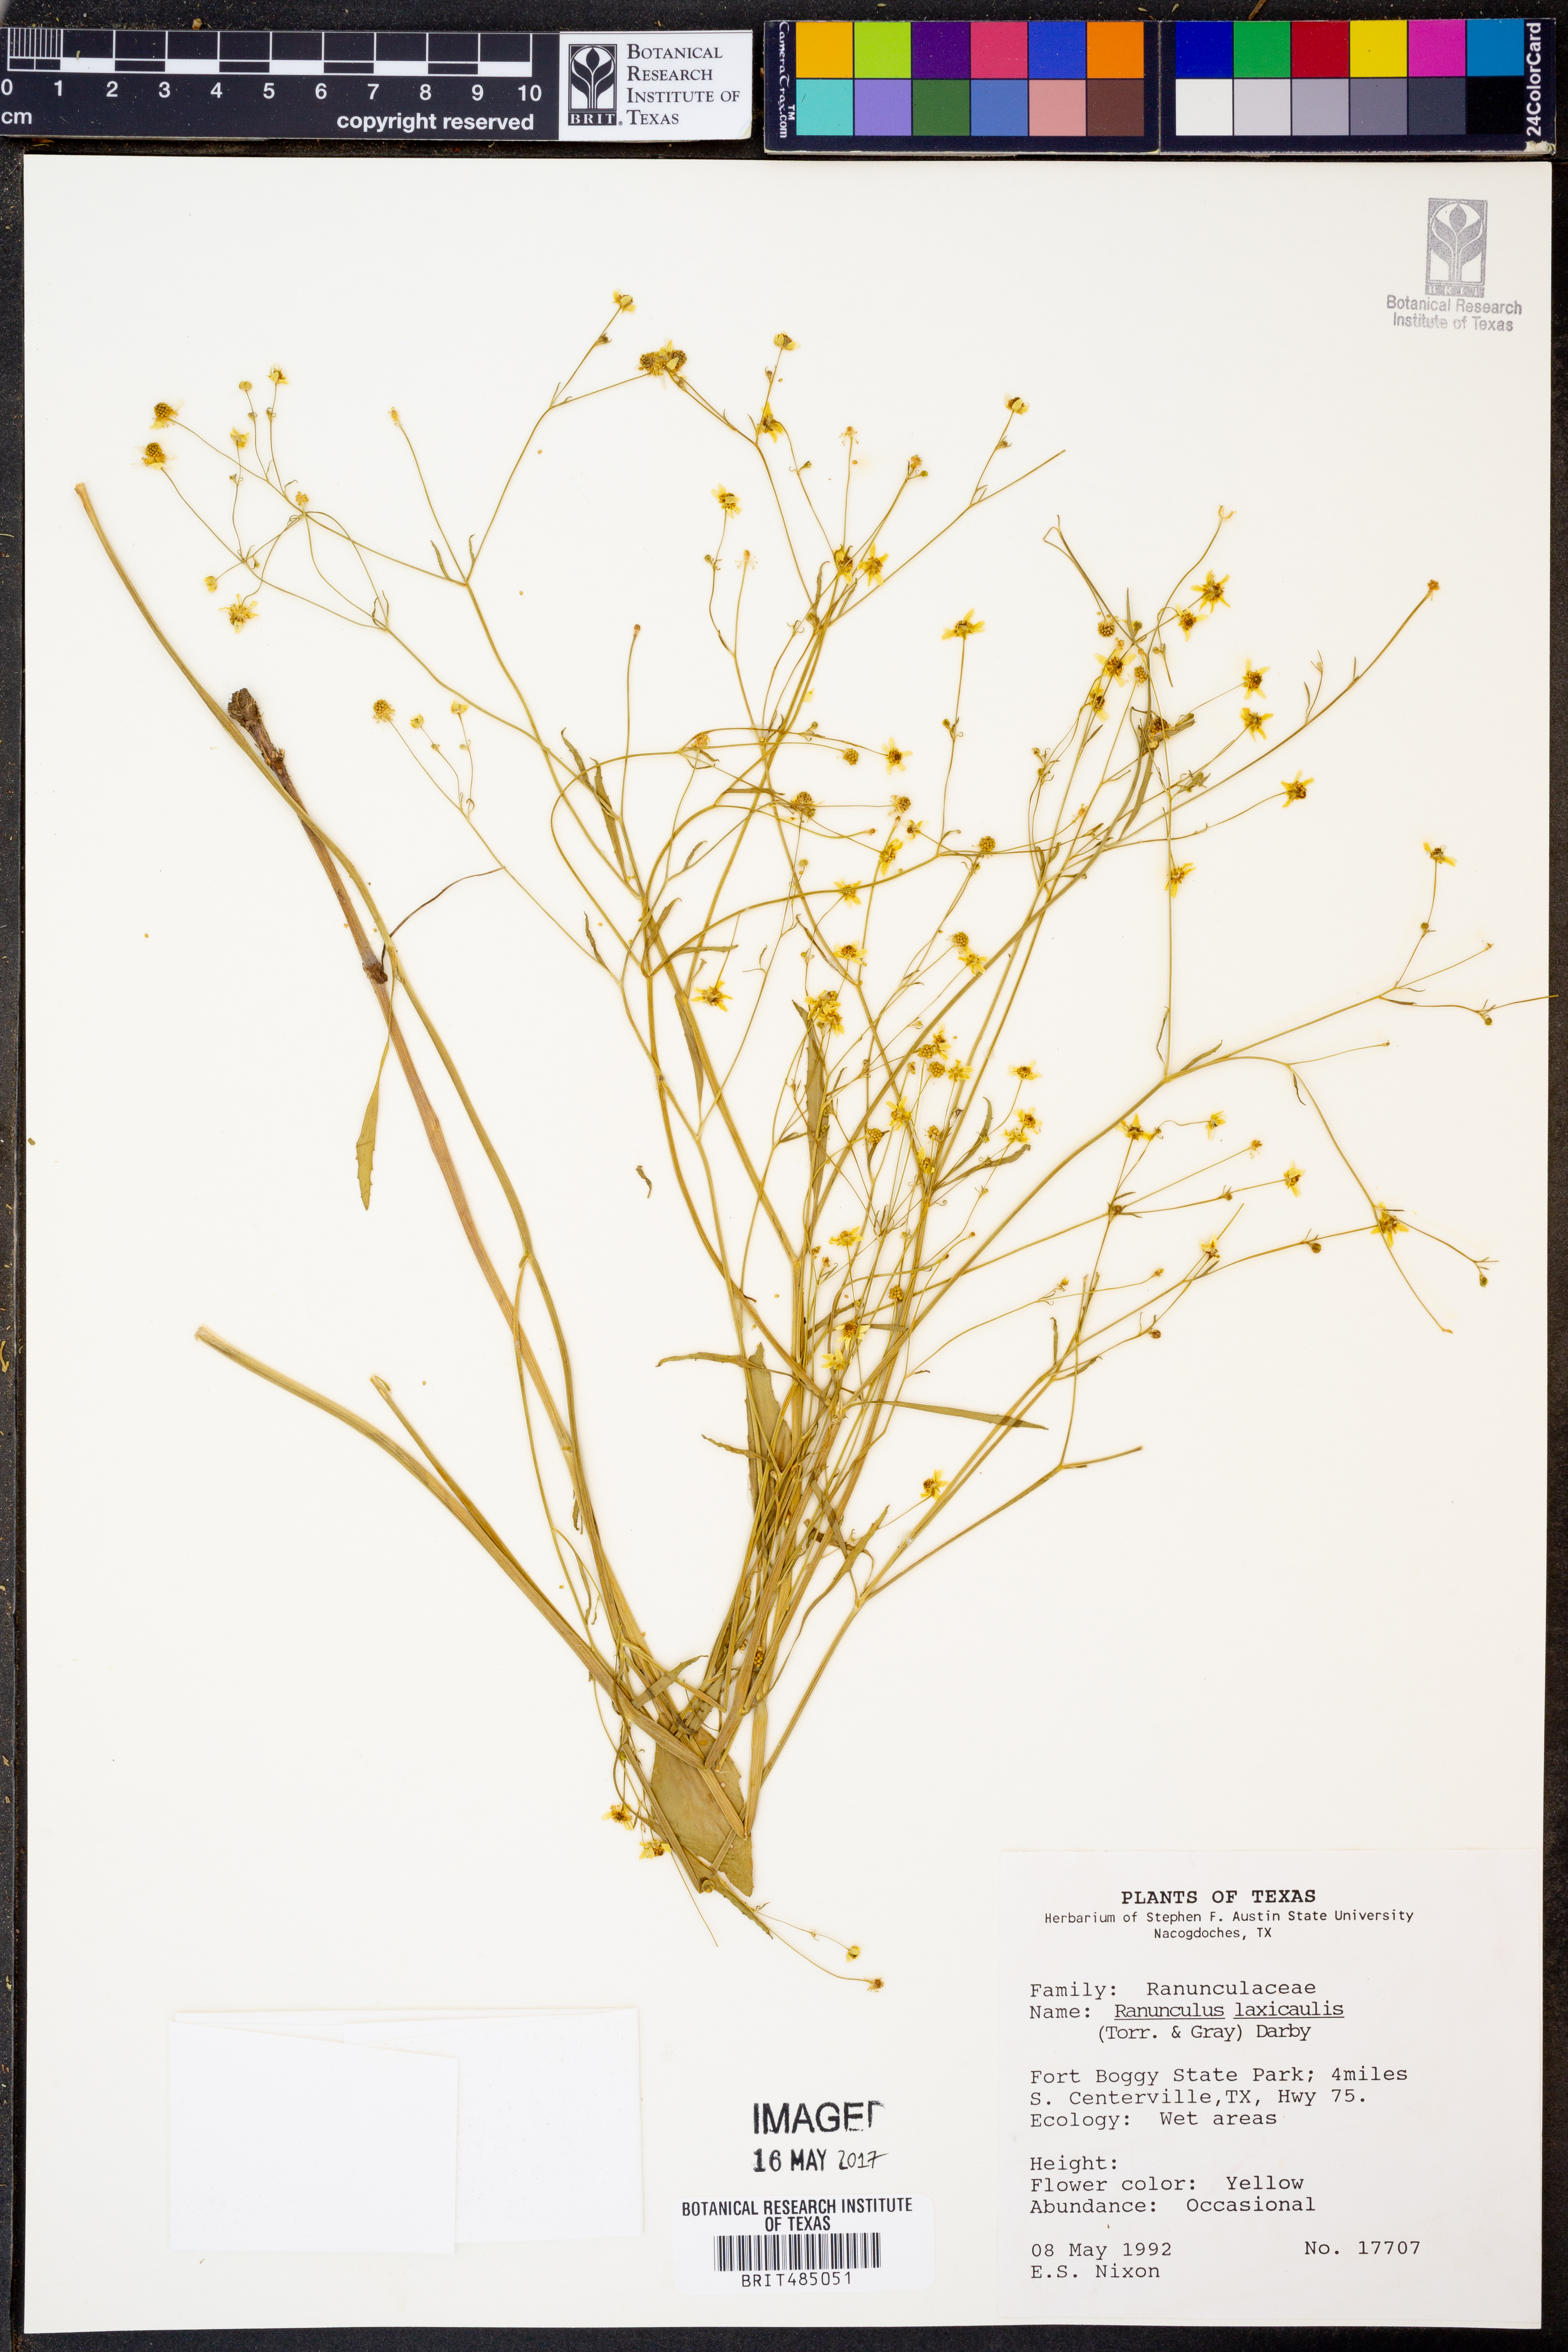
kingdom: Plantae
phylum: Tracheophyta
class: Magnoliopsida
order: Ranunculales
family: Ranunculaceae
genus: Ranunculus
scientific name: Ranunculus laxicaulis
